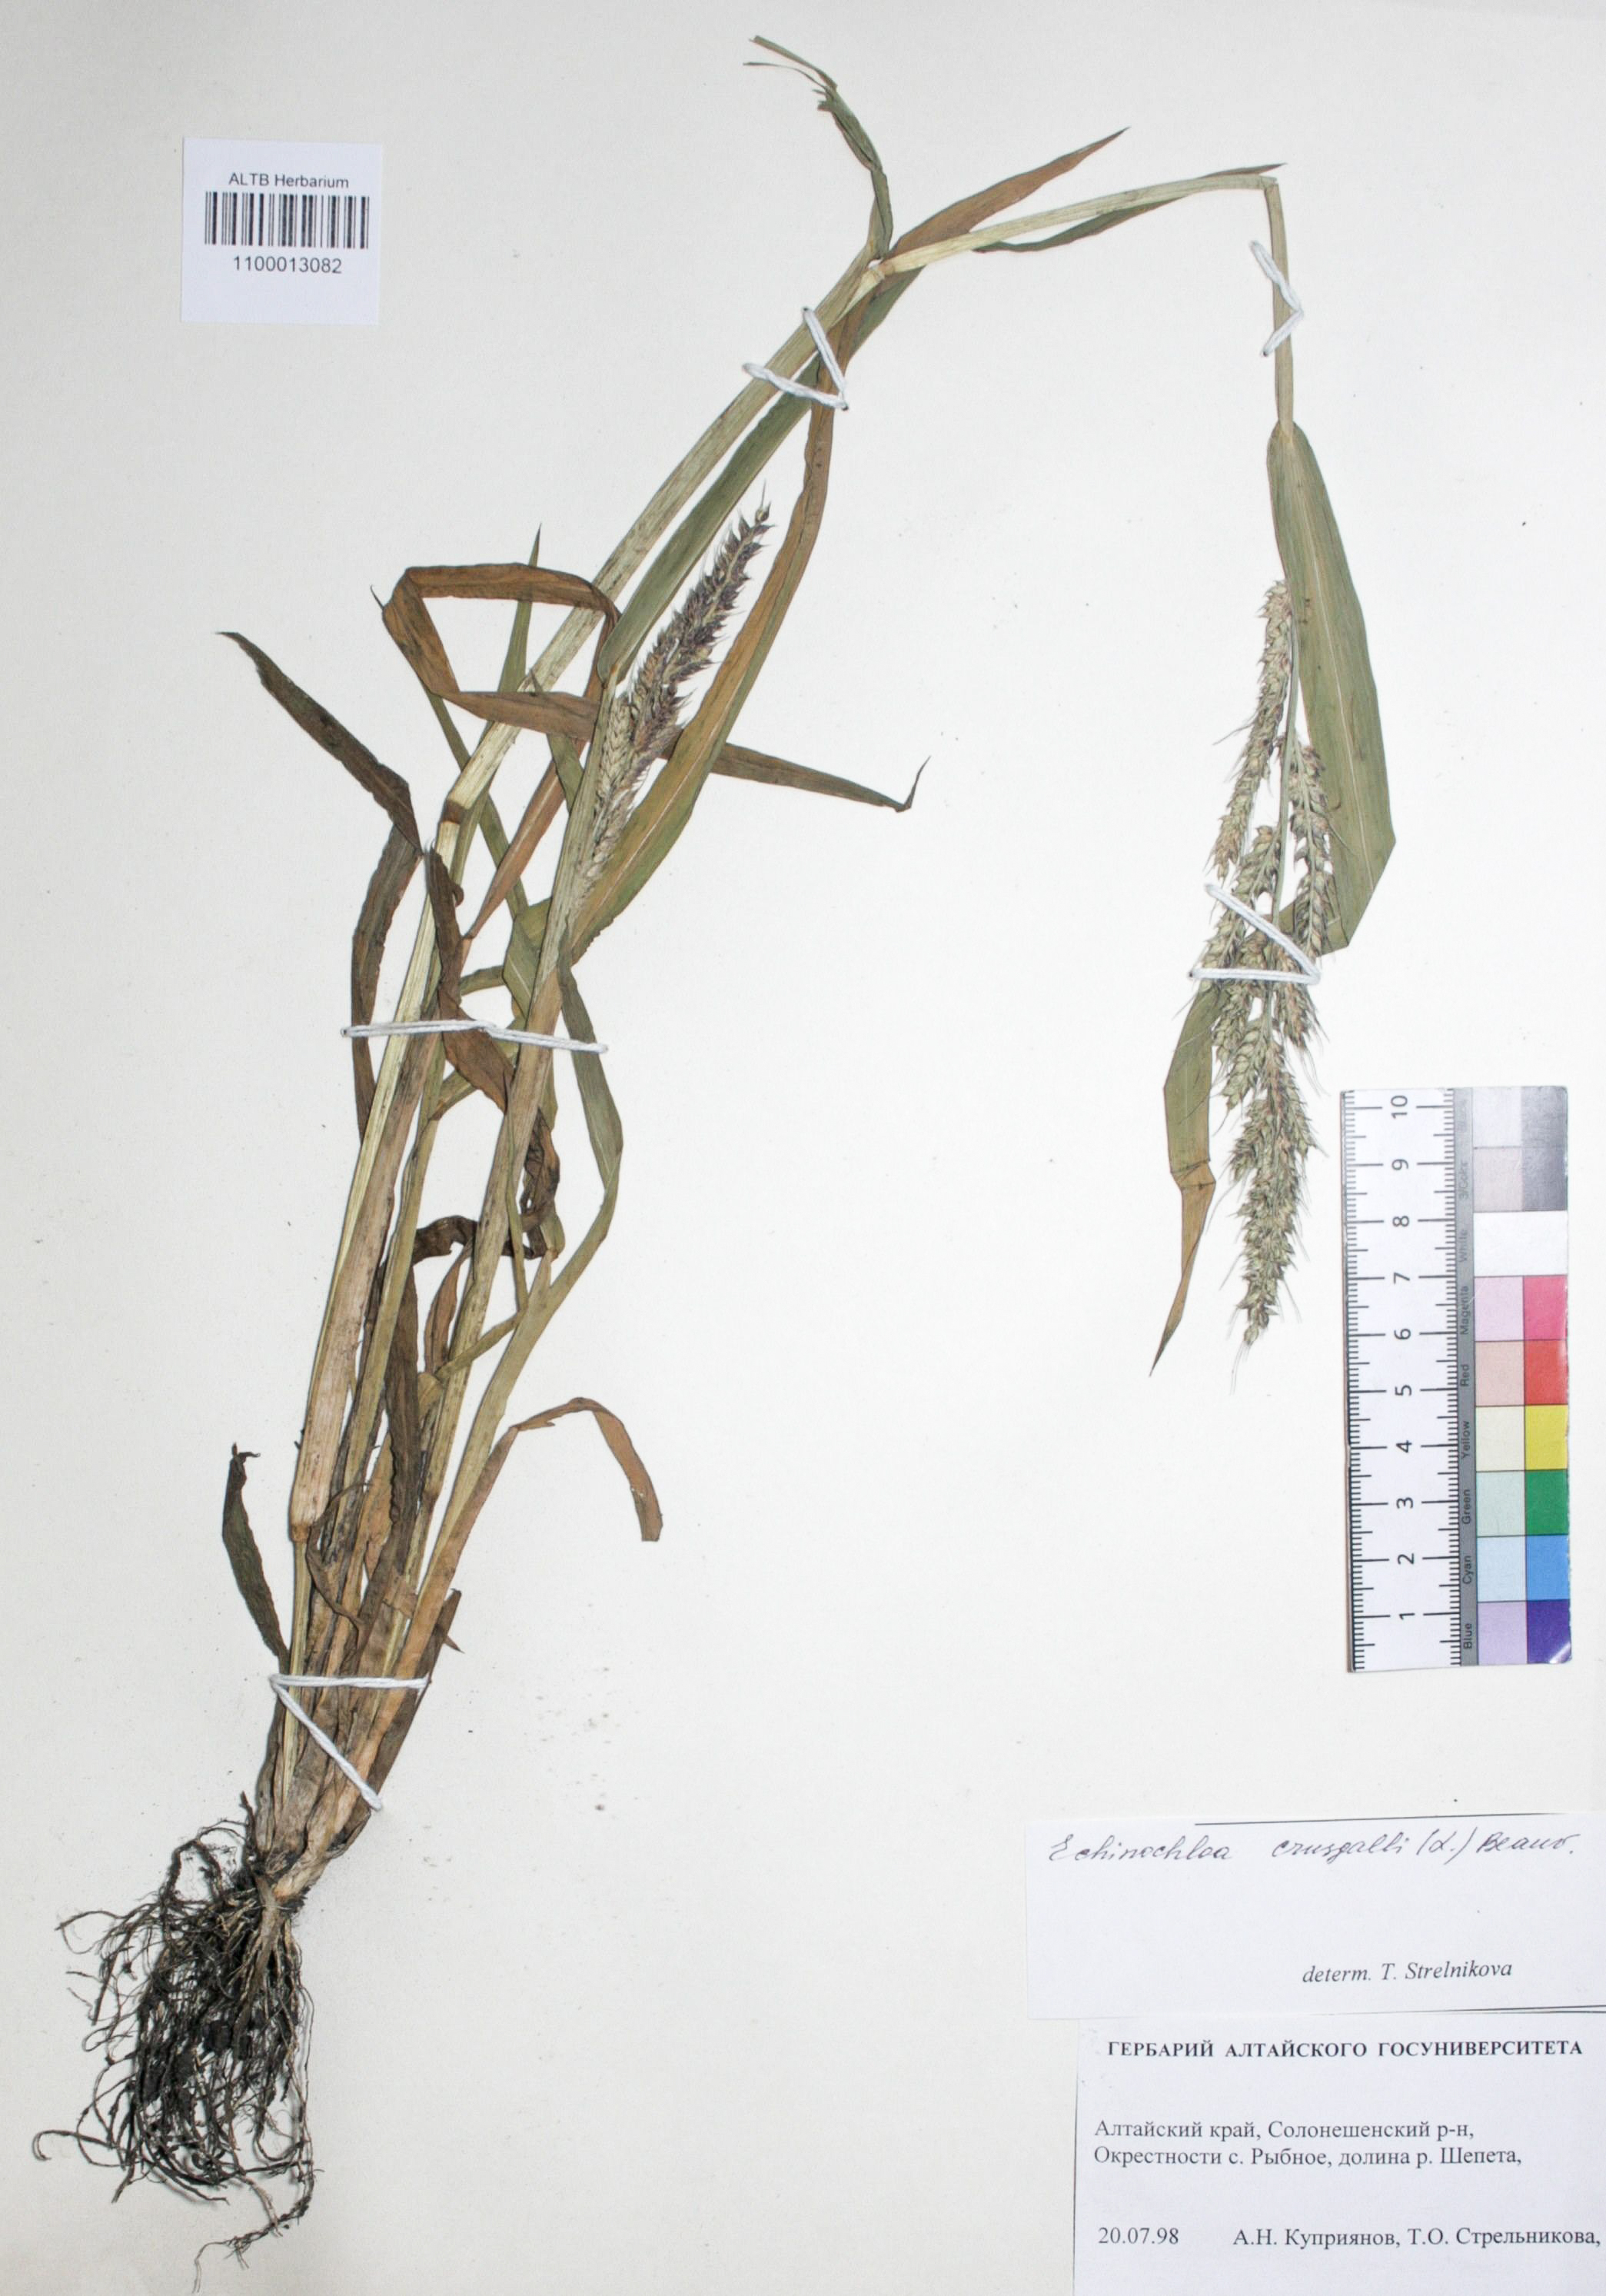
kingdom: Plantae
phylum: Tracheophyta
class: Liliopsida
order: Poales
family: Poaceae
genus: Echinochloa
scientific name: Echinochloa crus-galli
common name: Cockspur
